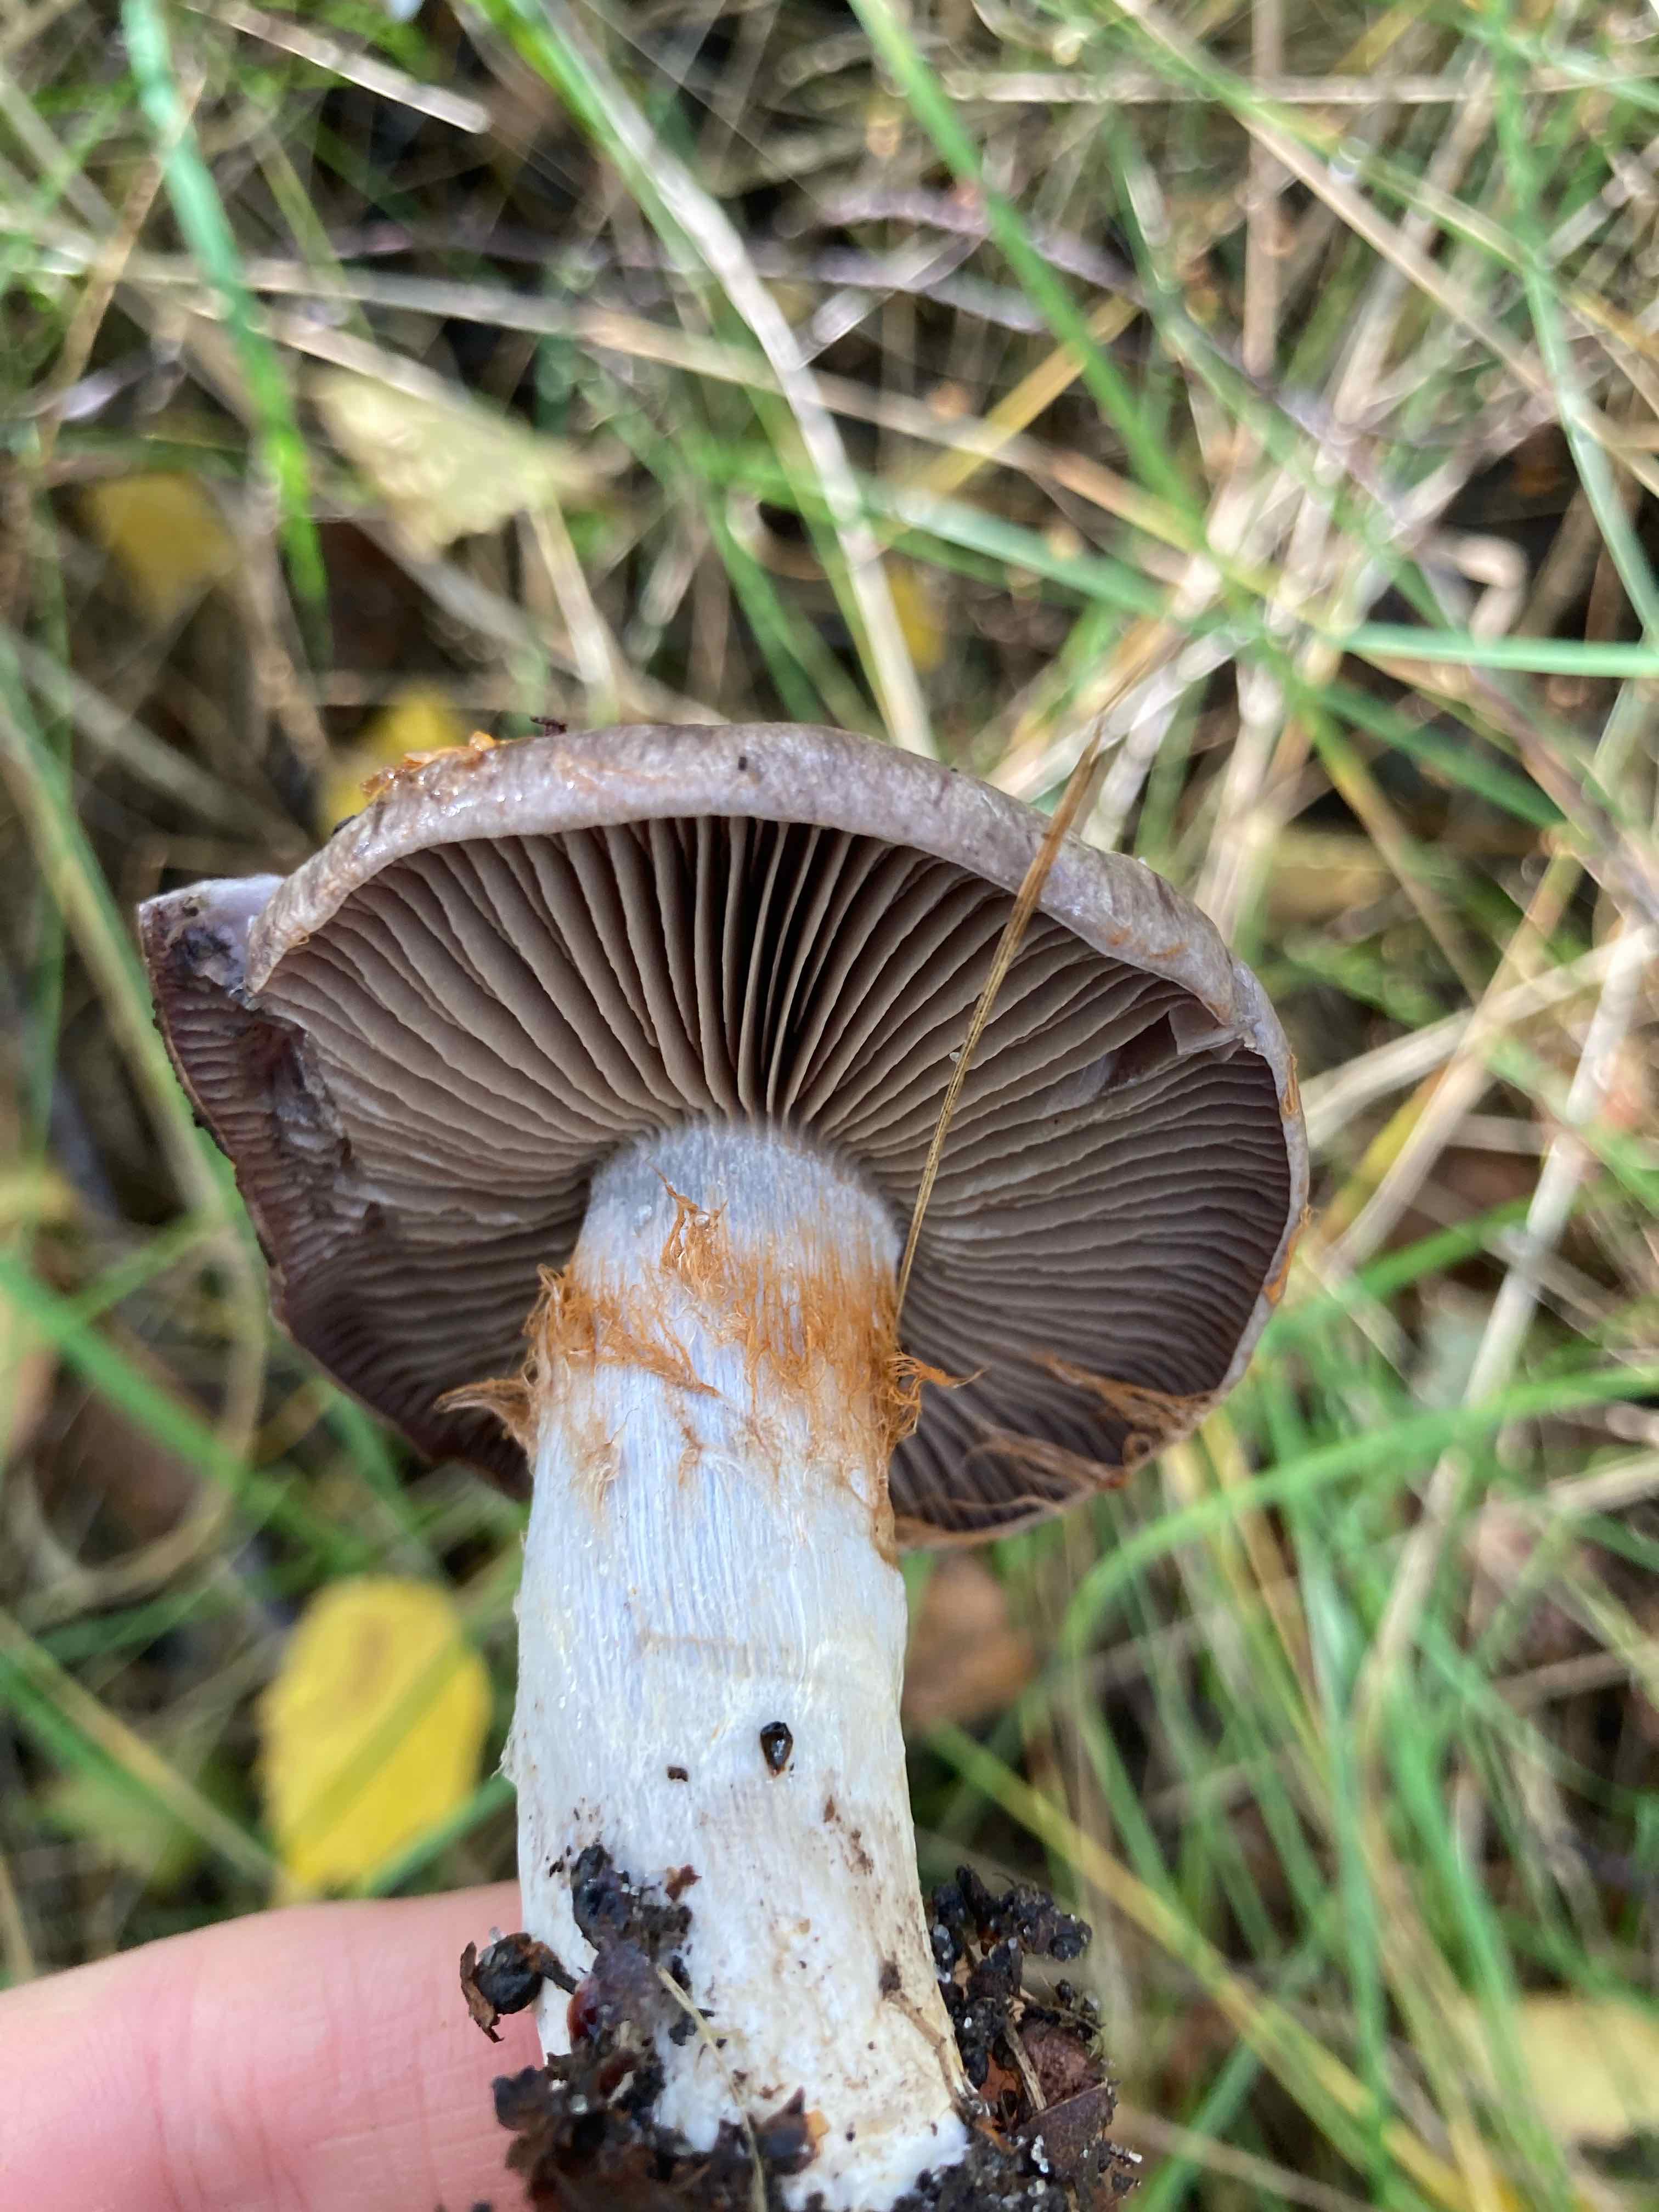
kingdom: Fungi
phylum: Basidiomycota
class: Agaricomycetes
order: Agaricales
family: Cortinariaceae
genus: Cortinarius
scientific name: Cortinarius
